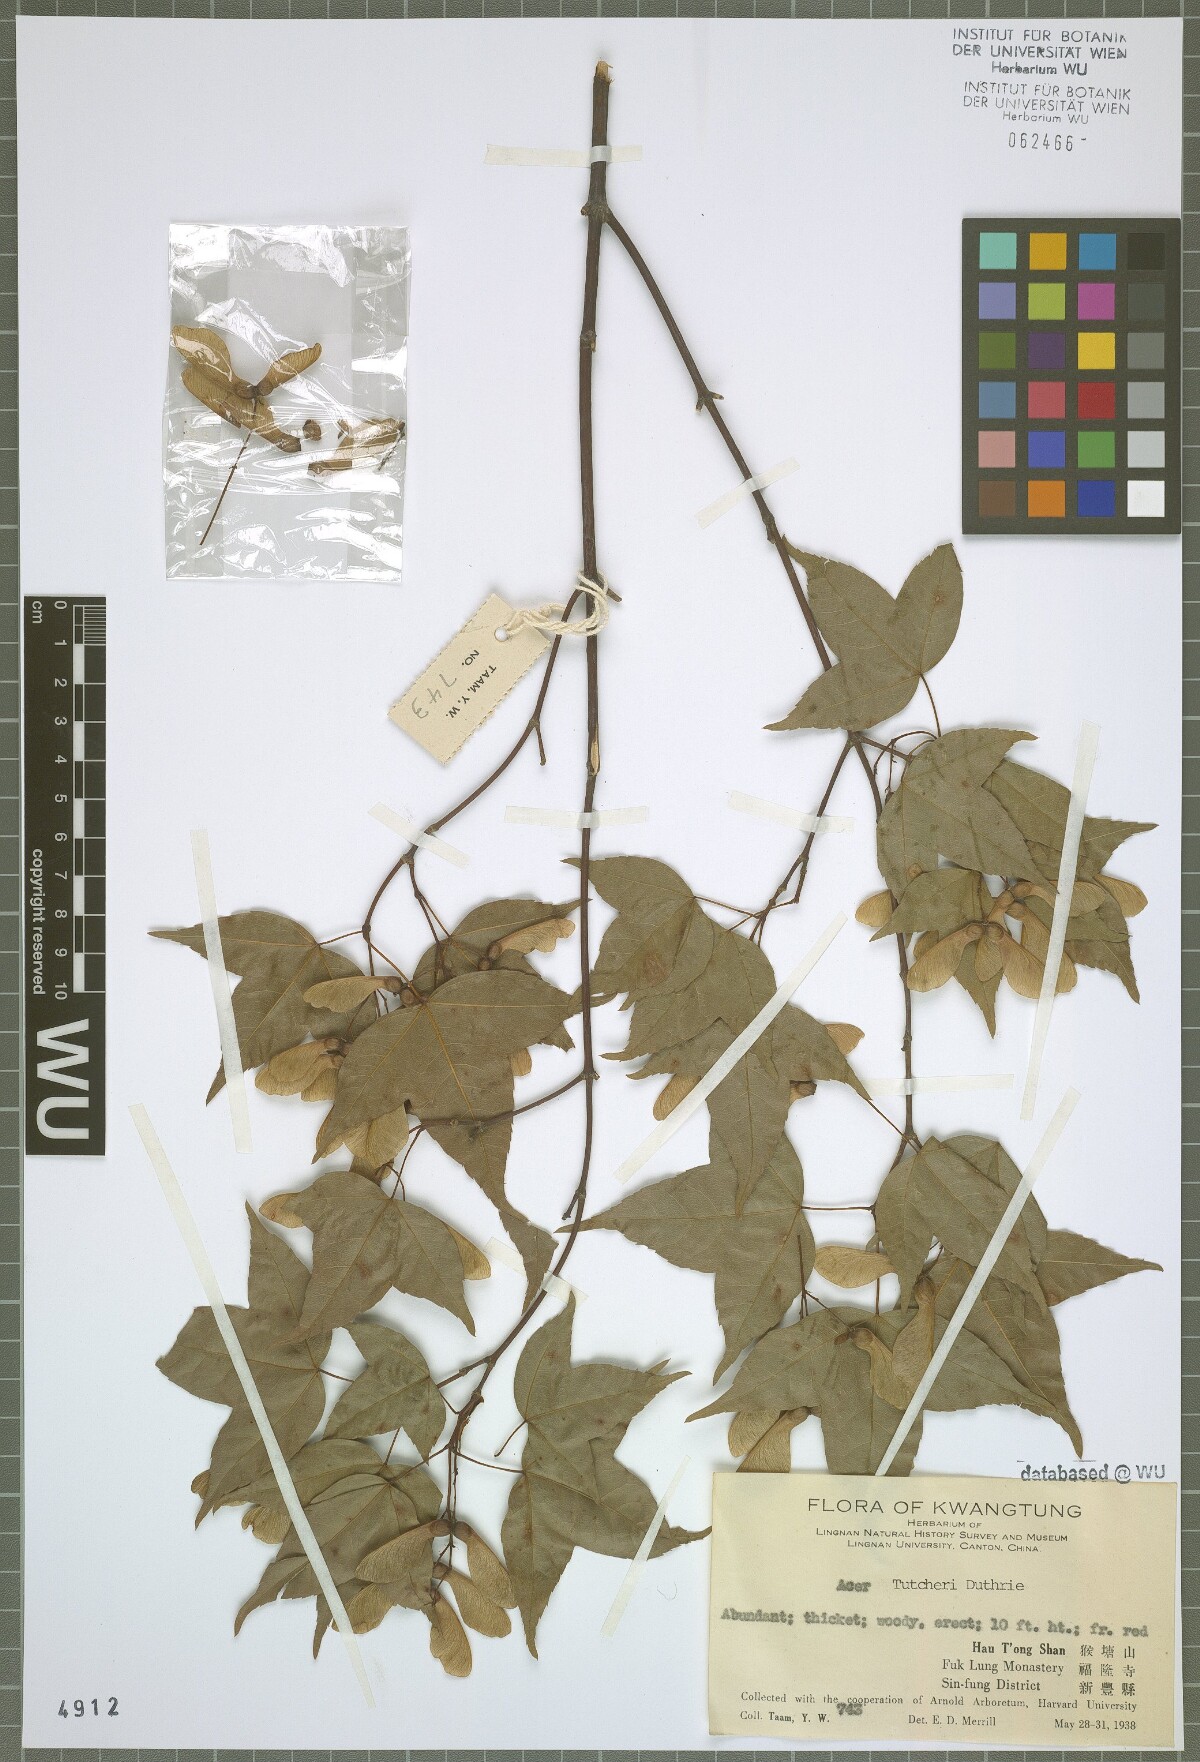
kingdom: Plantae
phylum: Tracheophyta
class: Magnoliopsida
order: Sapindales
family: Sapindaceae
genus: Acer
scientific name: Acer tutcheri
